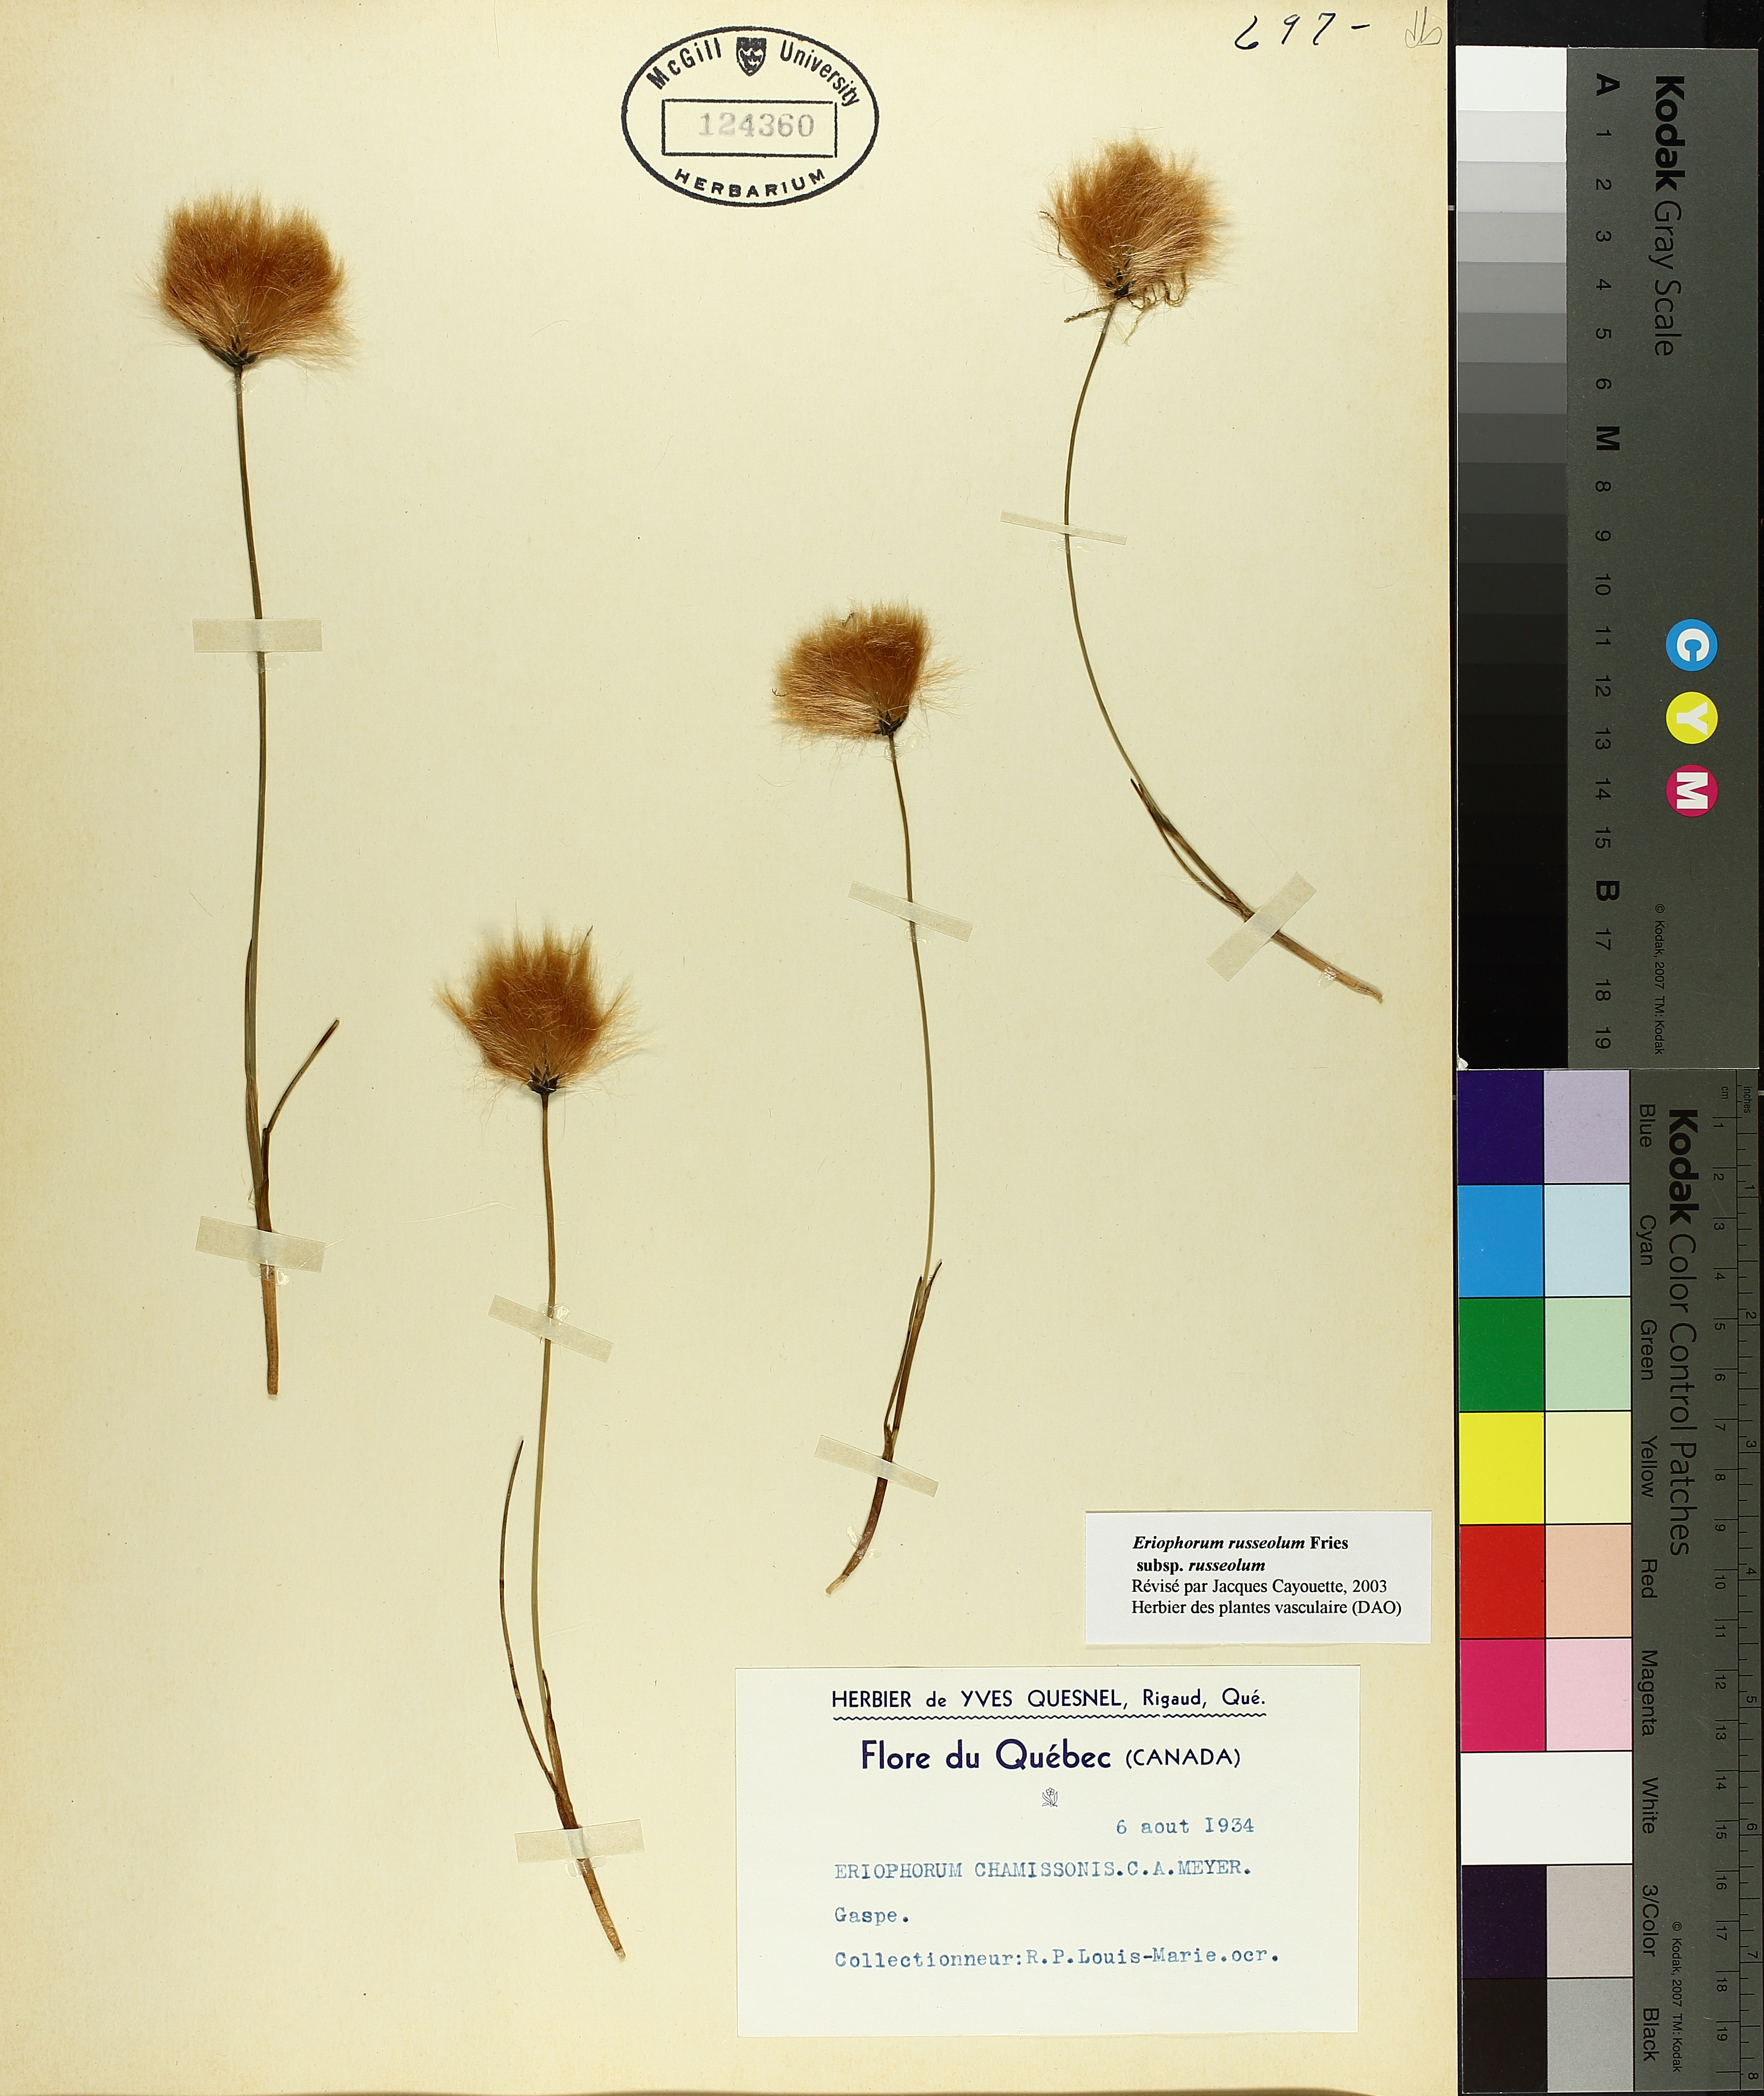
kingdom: Plantae
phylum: Tracheophyta
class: Liliopsida
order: Poales
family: Cyperaceae
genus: Eriophorum
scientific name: Eriophorum chamissonis
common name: Chamisso's cottongrass
